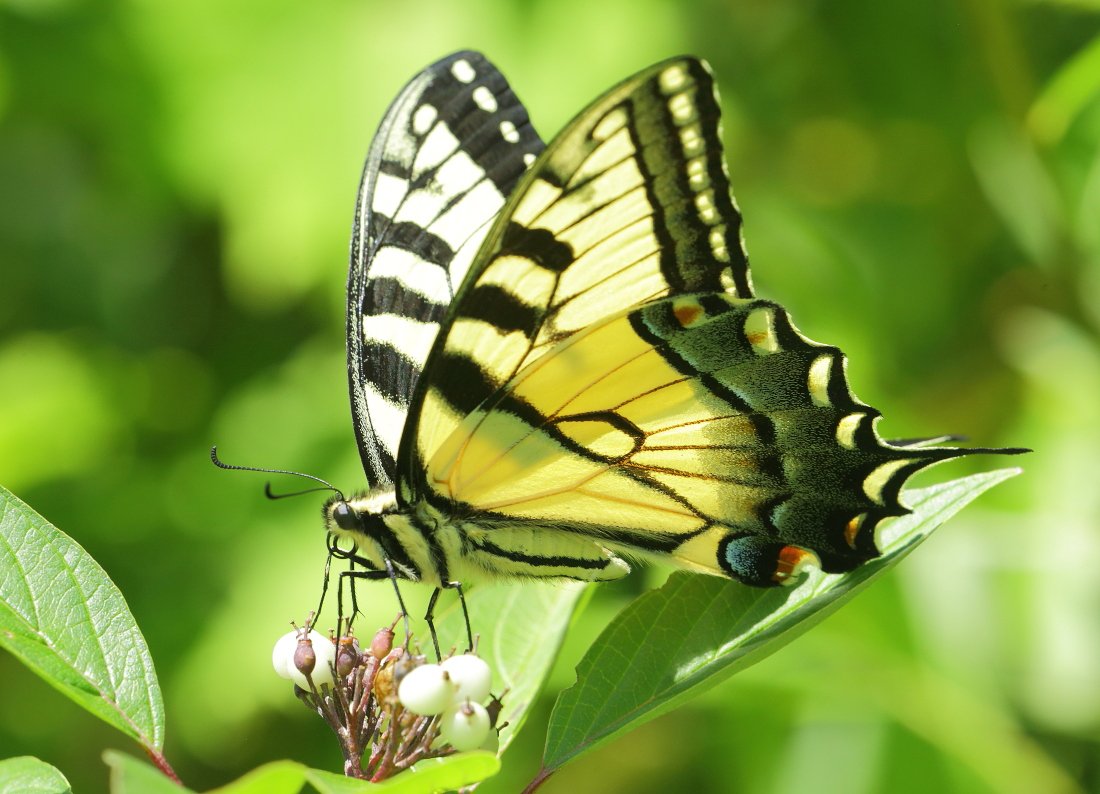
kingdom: Animalia
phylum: Arthropoda
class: Insecta
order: Lepidoptera
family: Papilionidae
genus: Pterourus
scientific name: Pterourus glaucus
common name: Eastern Tiger Swallowtail
